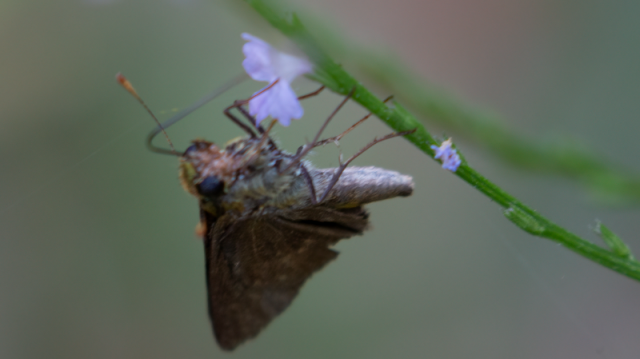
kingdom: Animalia
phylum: Arthropoda
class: Insecta
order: Lepidoptera
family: Hesperiidae
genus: Euphyes
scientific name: Euphyes vestris
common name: Dun Skipper
